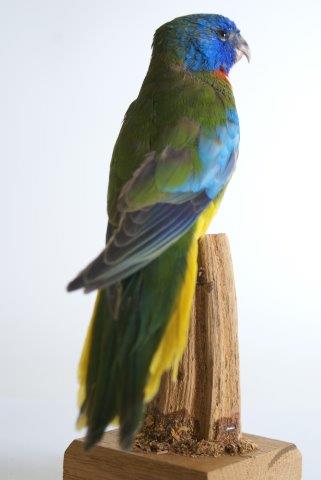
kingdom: Animalia
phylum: Chordata
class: Aves
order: Psittaciformes
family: Psittacidae
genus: Neophema
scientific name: Neophema splendida
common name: Scarlet-chested Parrot
